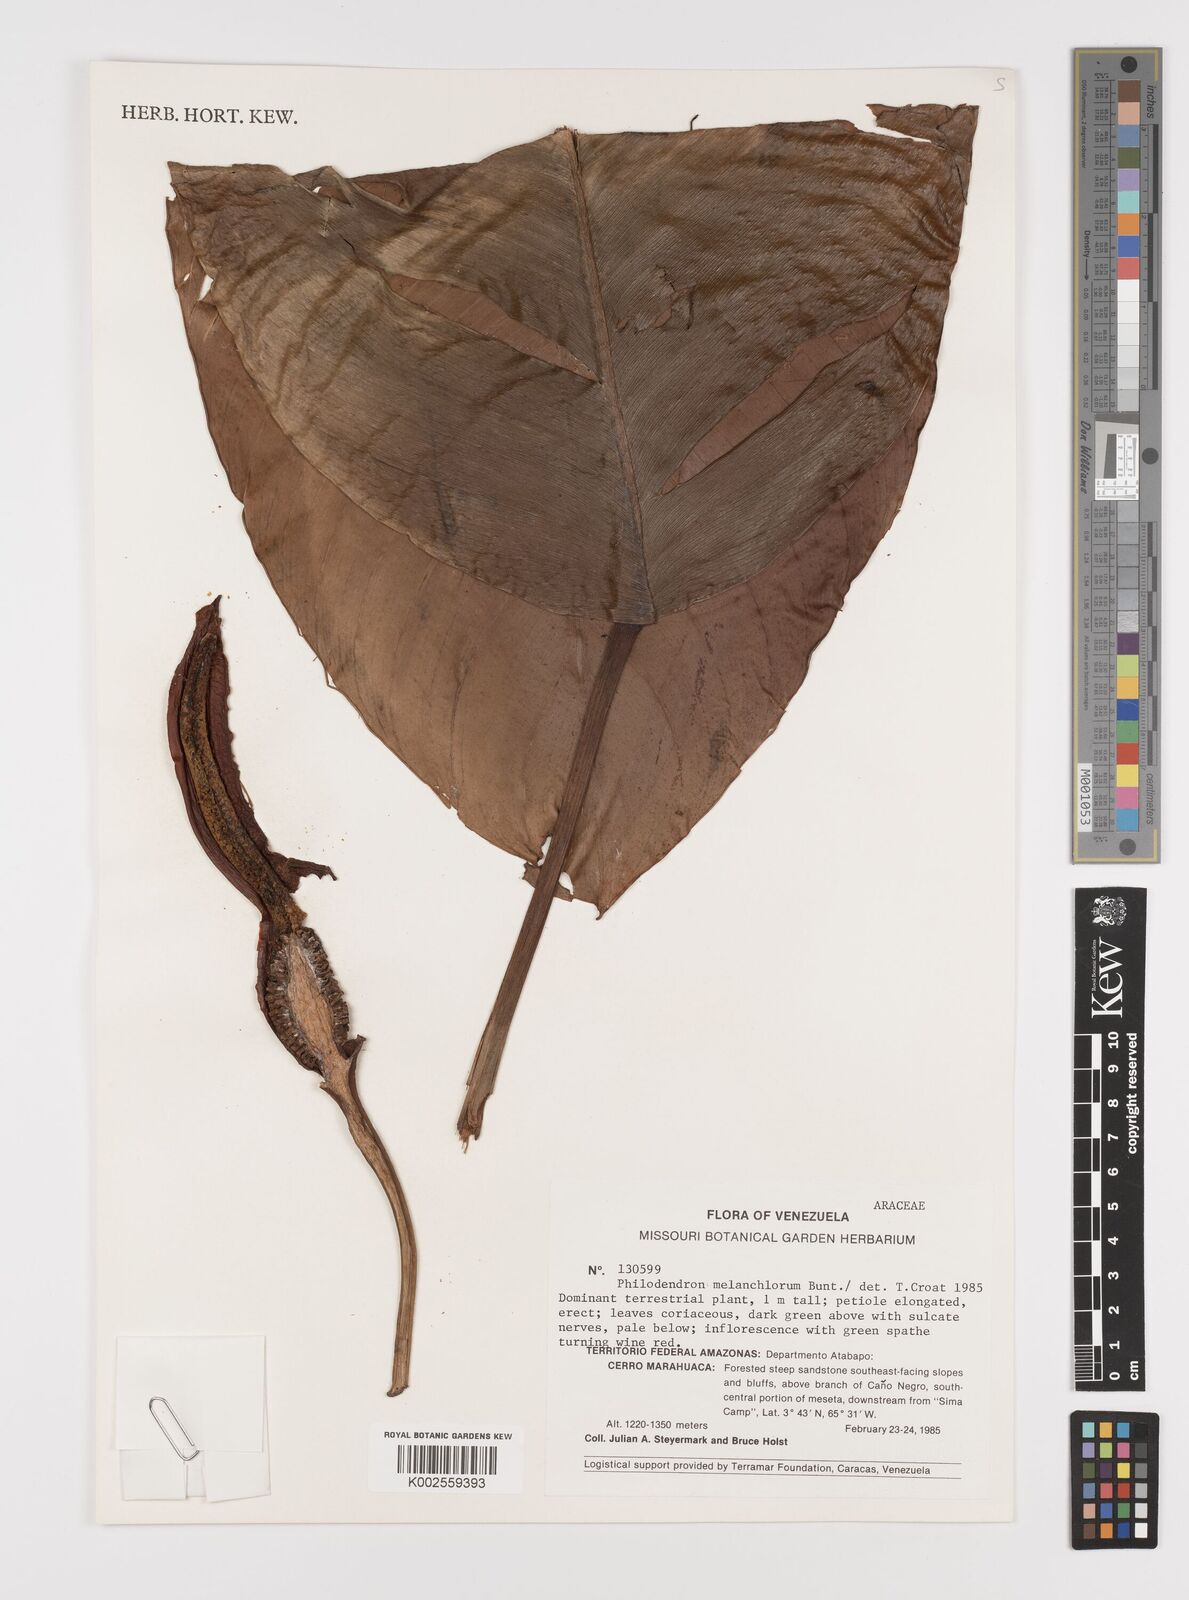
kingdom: Plantae
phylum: Tracheophyta
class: Liliopsida
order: Alismatales
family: Araceae
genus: Philodendron
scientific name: Philodendron tatei
